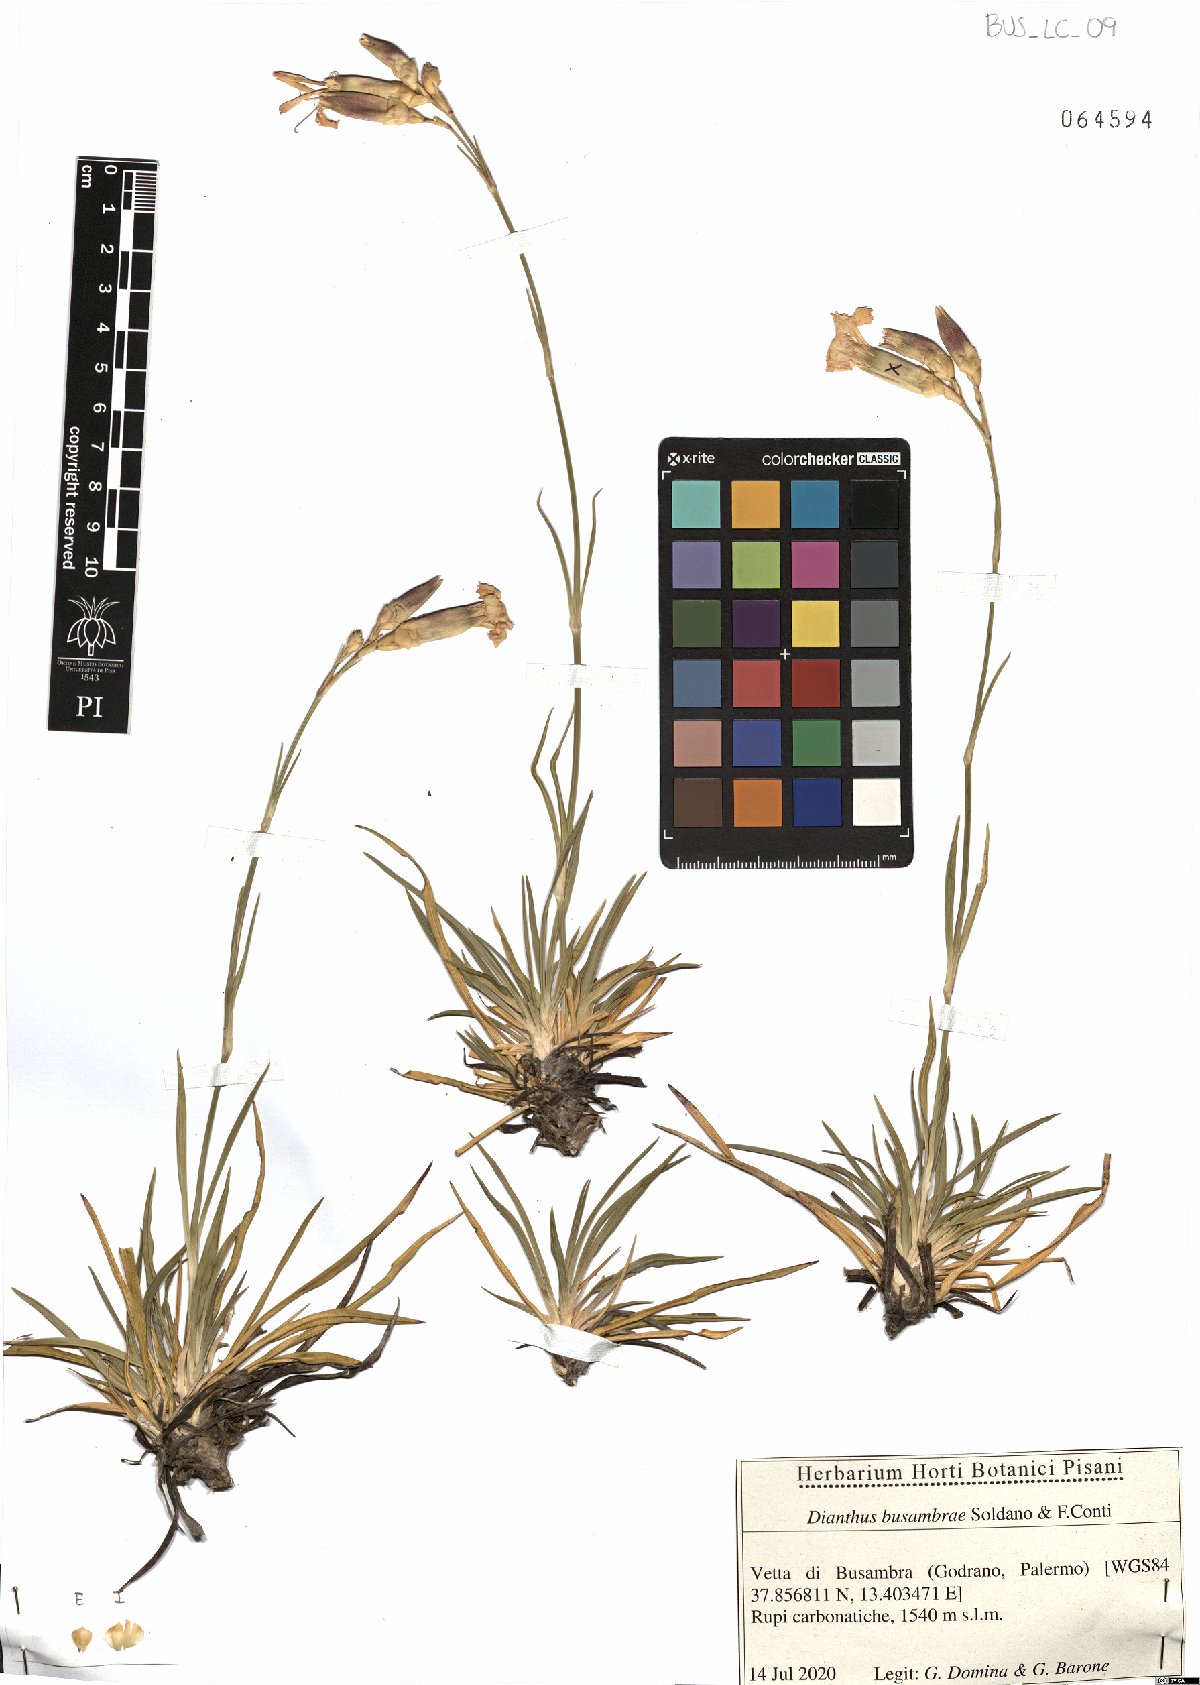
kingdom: Plantae
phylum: Tracheophyta
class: Magnoliopsida
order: Caryophyllales
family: Caryophyllaceae
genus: Dianthus
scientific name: Dianthus busambrae
